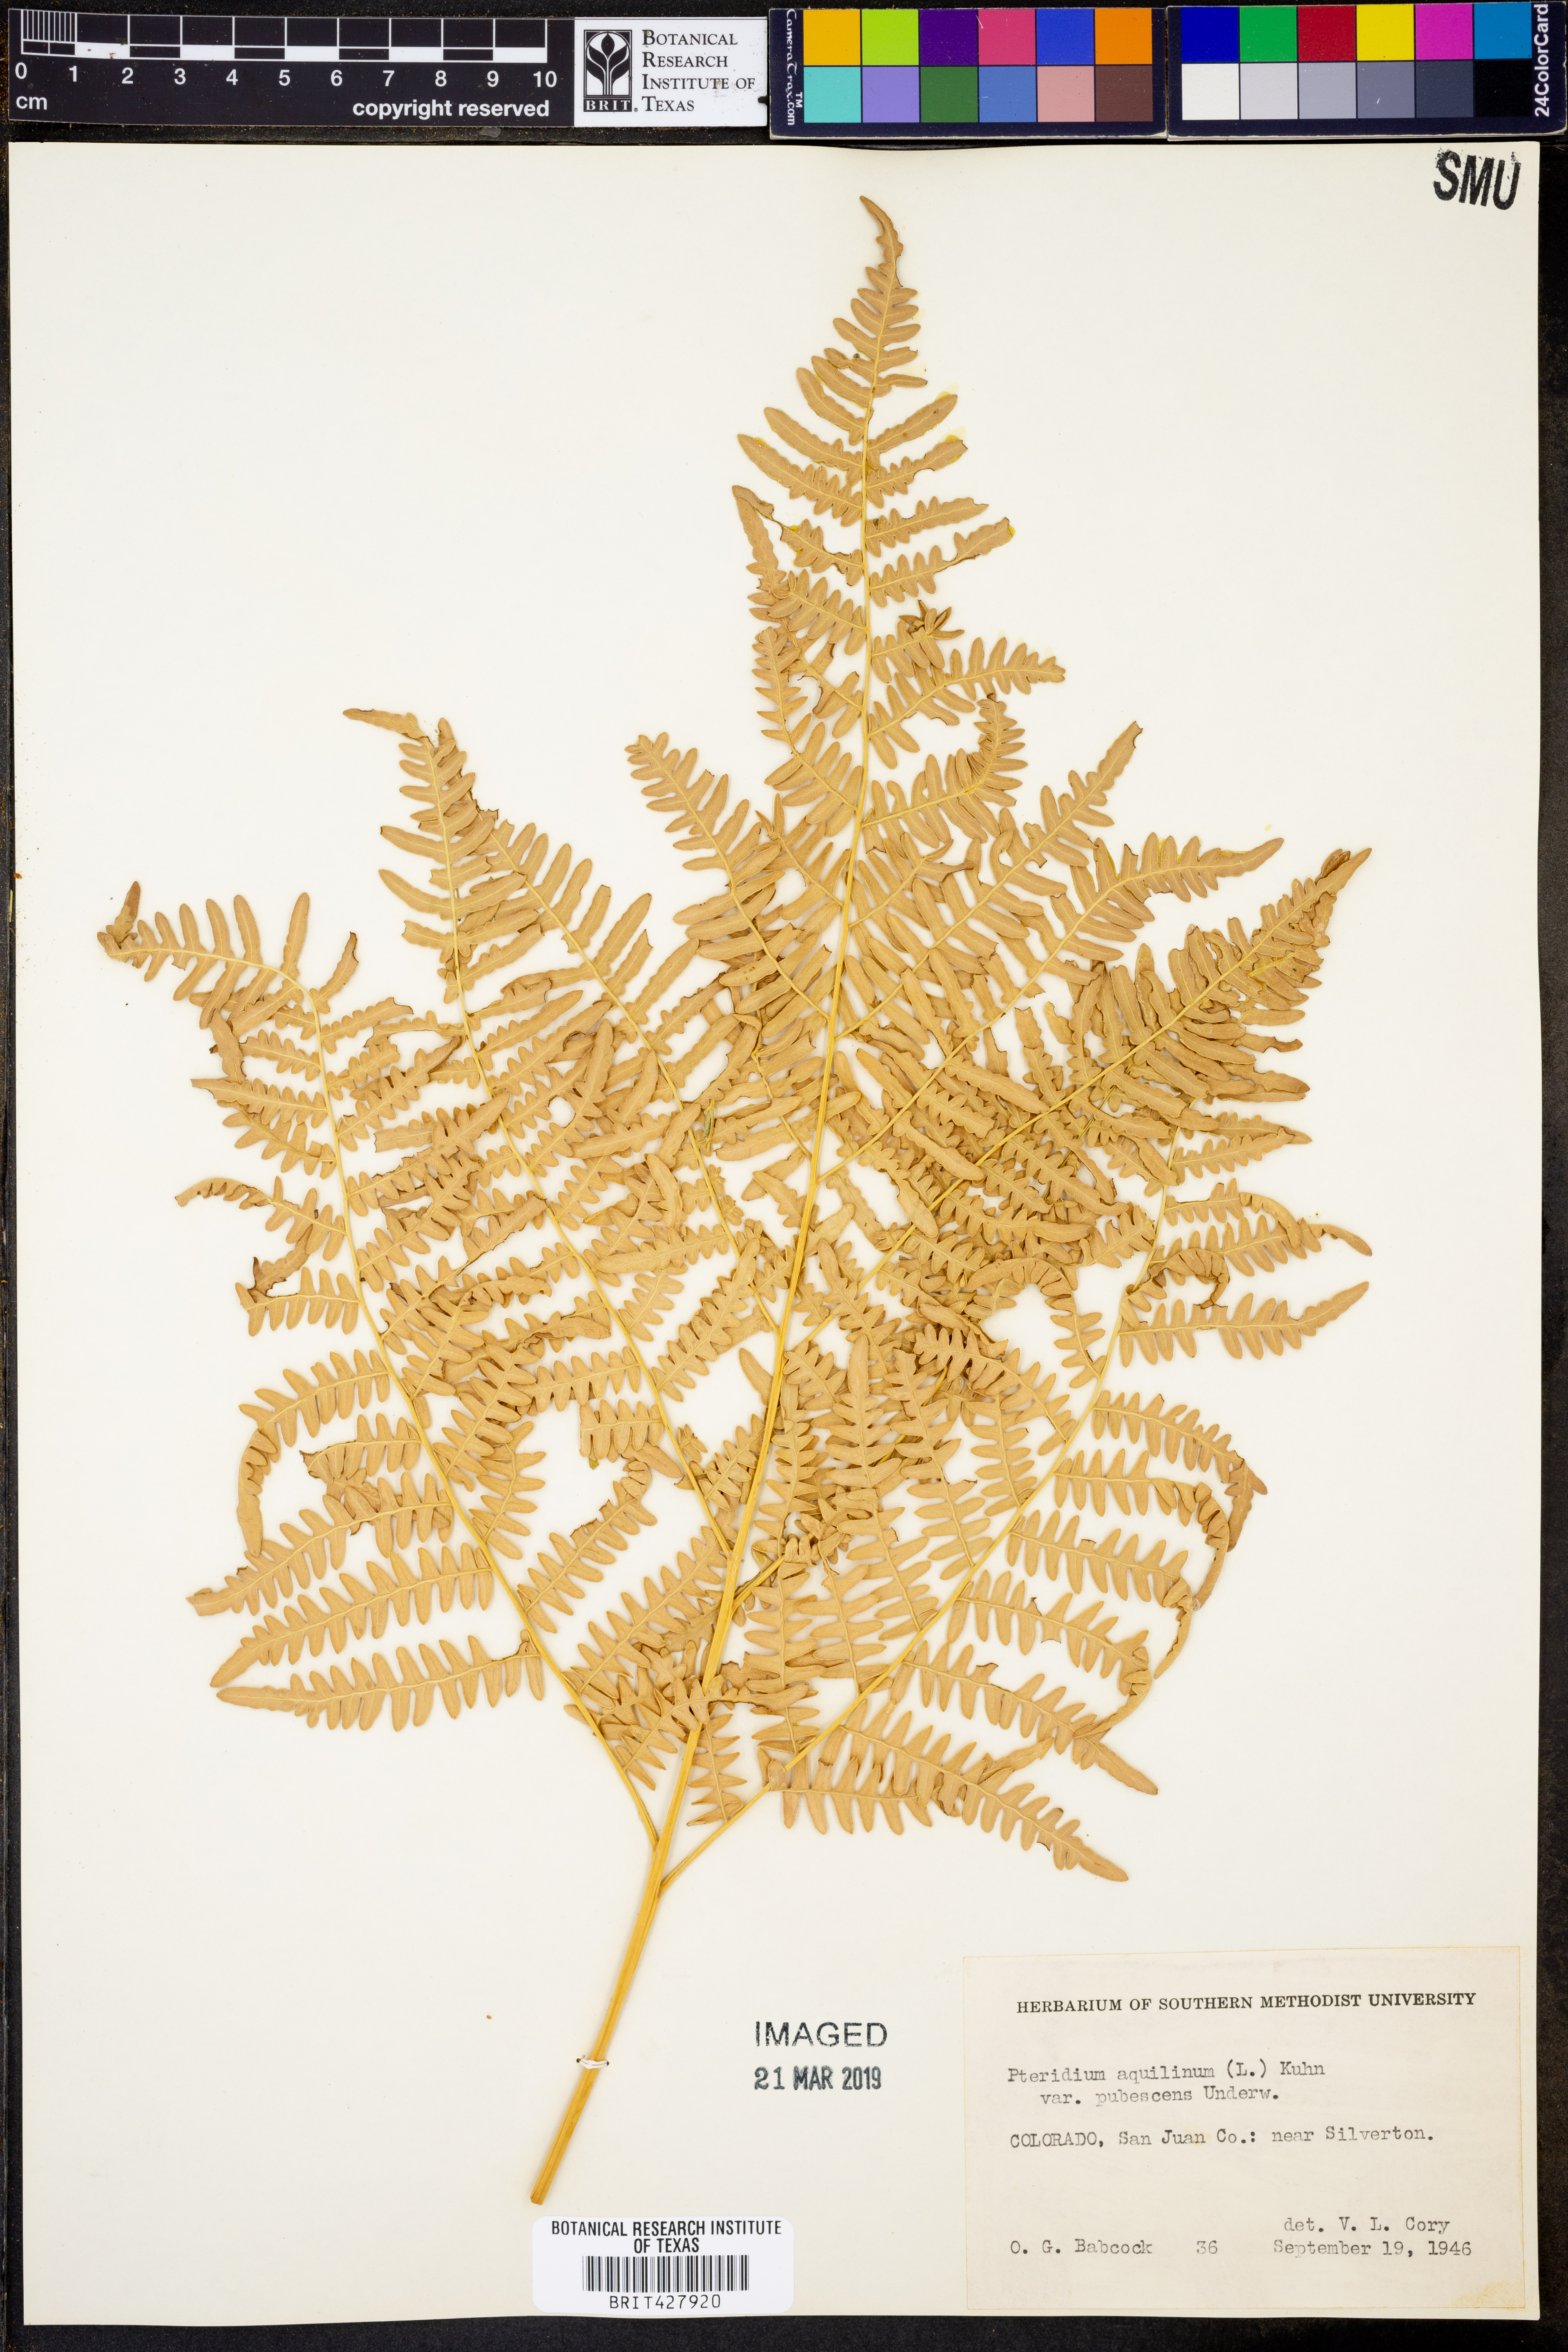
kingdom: Plantae
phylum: Tracheophyta
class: Polypodiopsida
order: Polypodiales
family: Dennstaedtiaceae
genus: Pteridium
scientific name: Pteridium aquilinum
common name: Bracken
